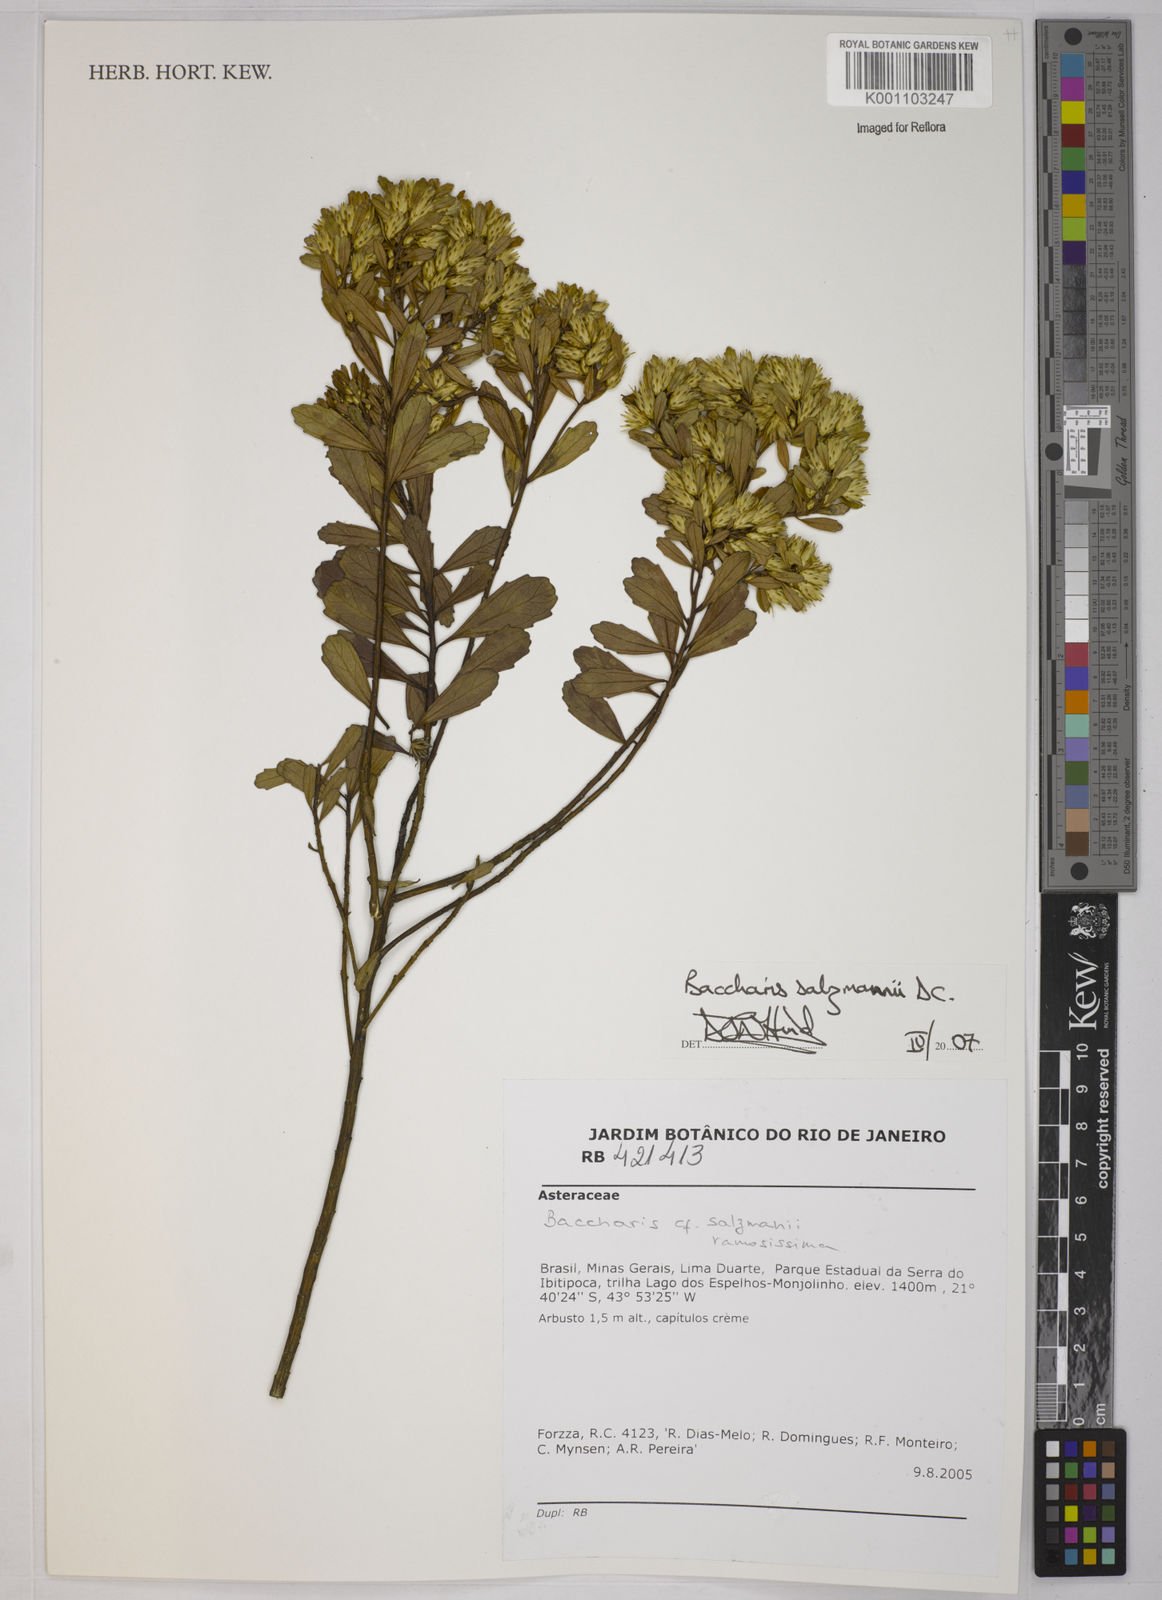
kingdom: Plantae
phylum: Tracheophyta
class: Magnoliopsida
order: Asterales
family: Asteraceae
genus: Baccharis
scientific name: Baccharis retusa
